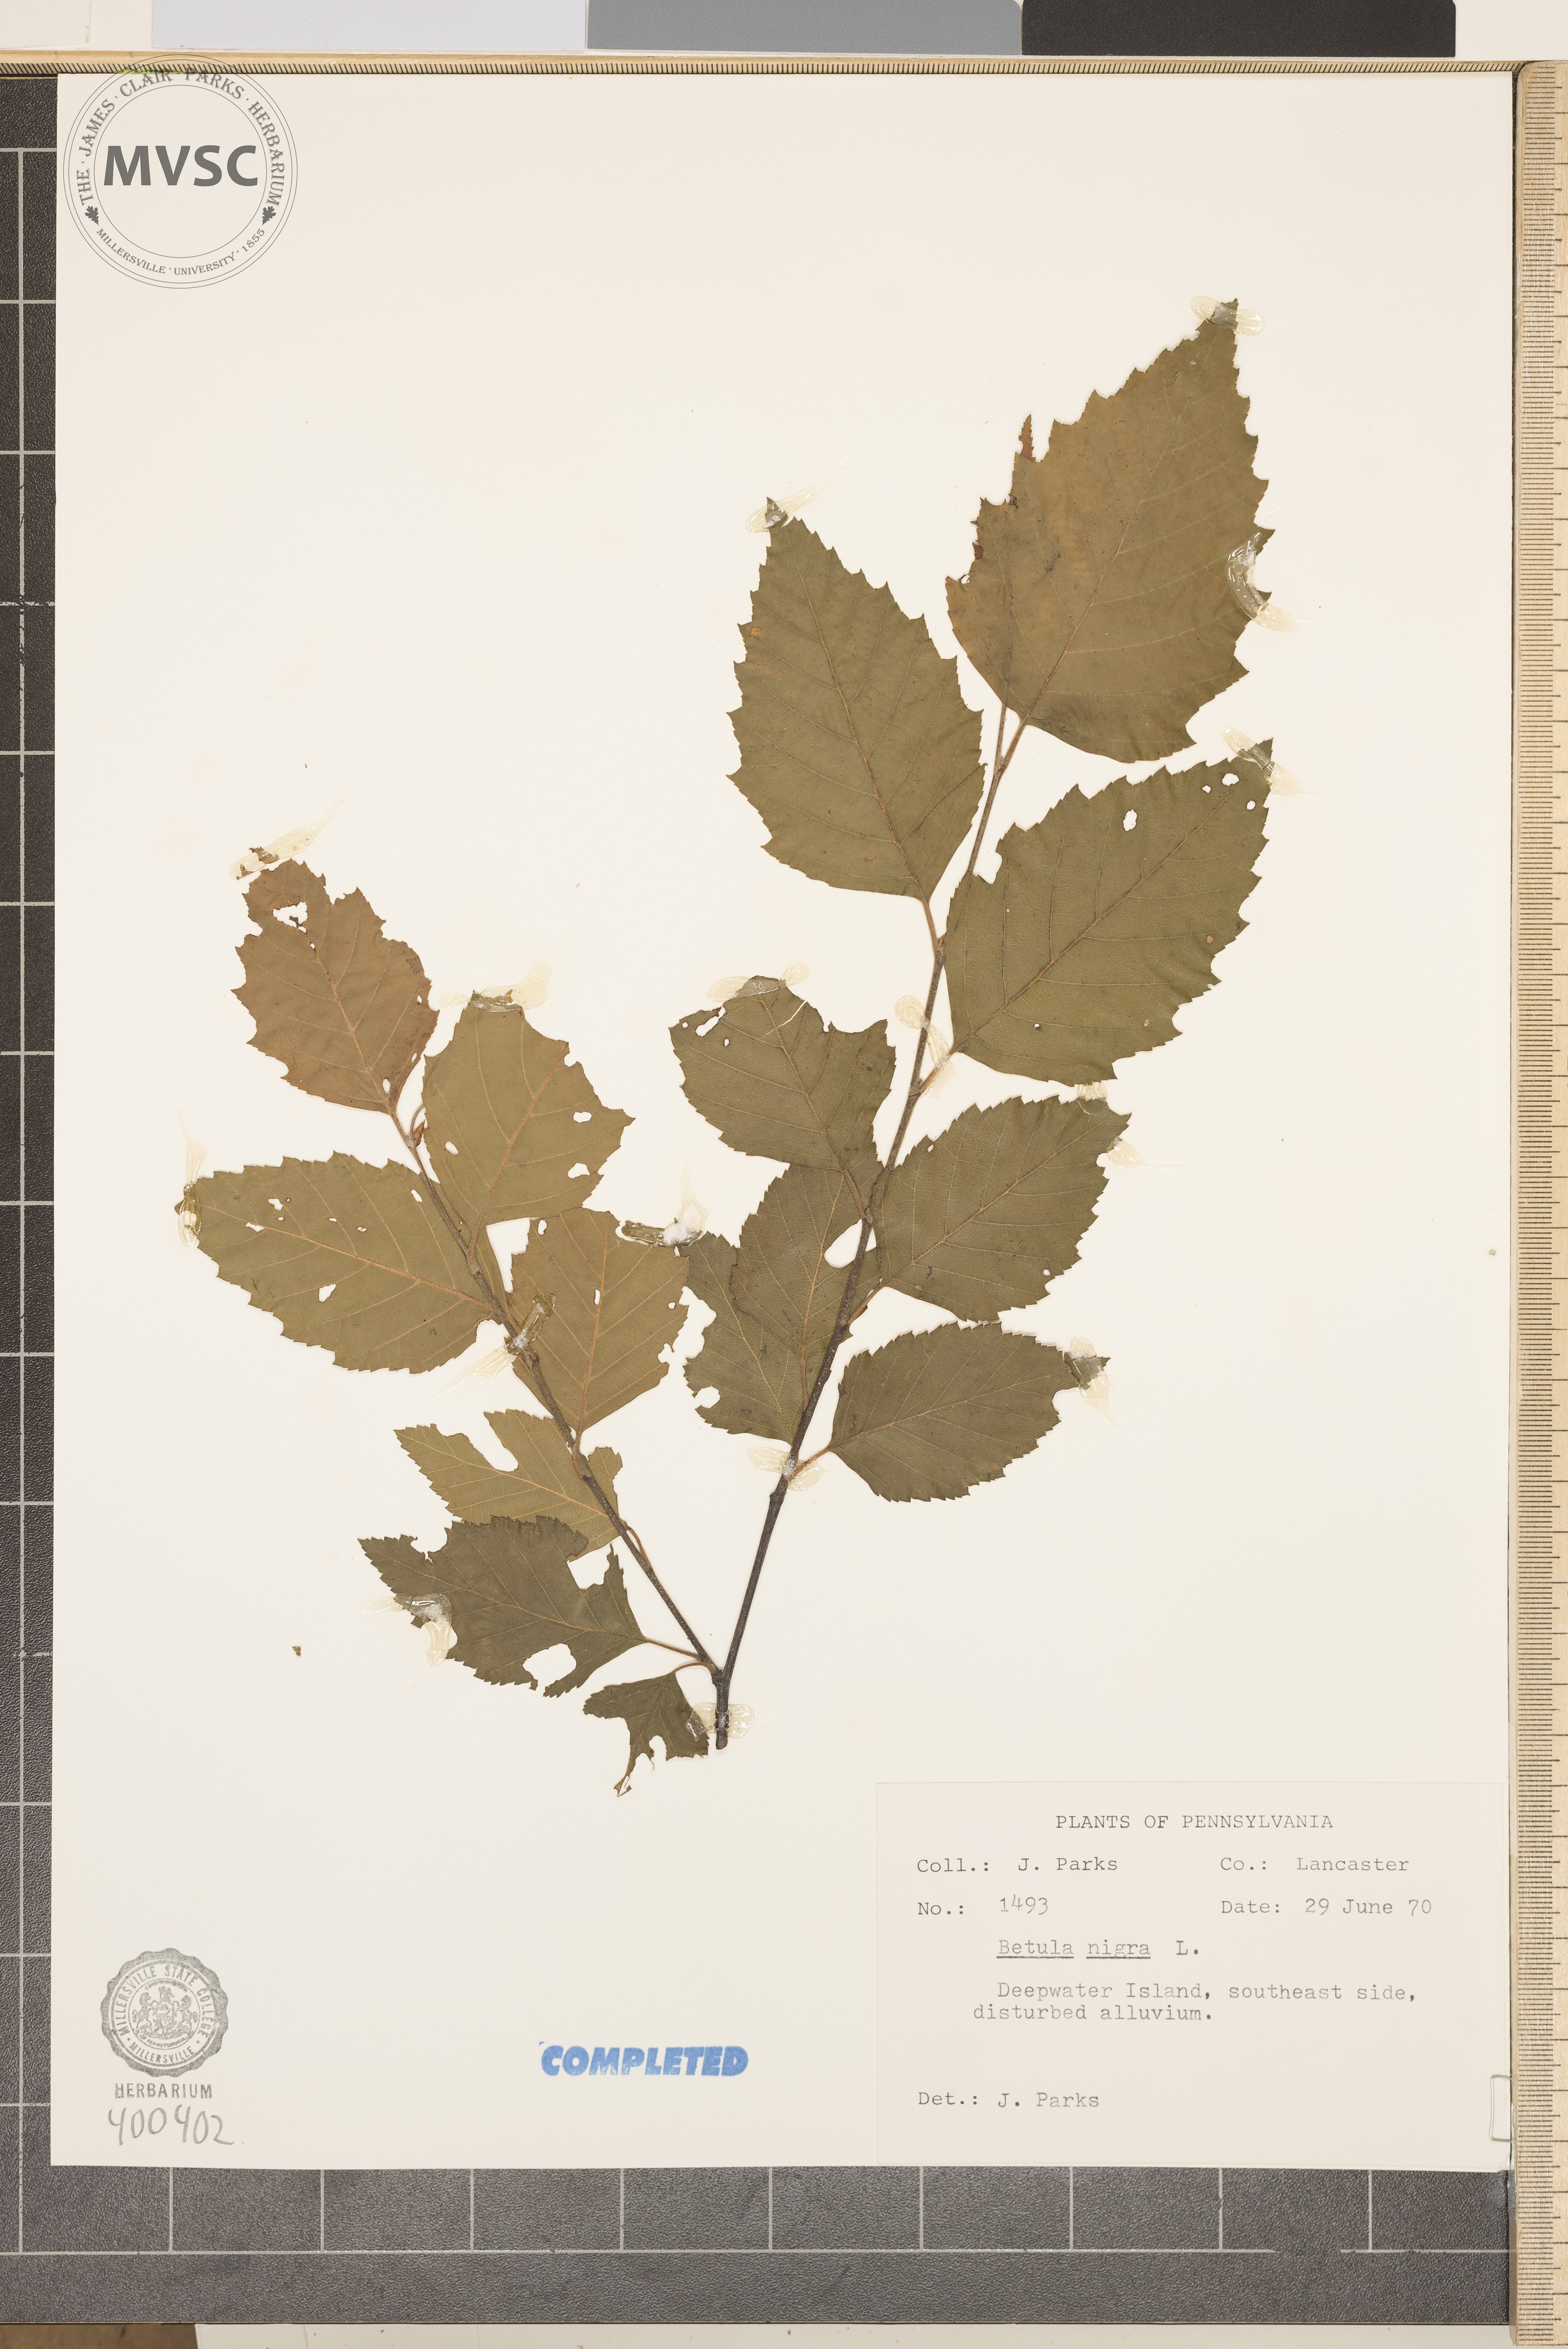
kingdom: Plantae
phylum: Tracheophyta
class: Magnoliopsida
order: Fagales
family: Betulaceae
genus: Betula
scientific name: Betula nigra
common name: river birch
